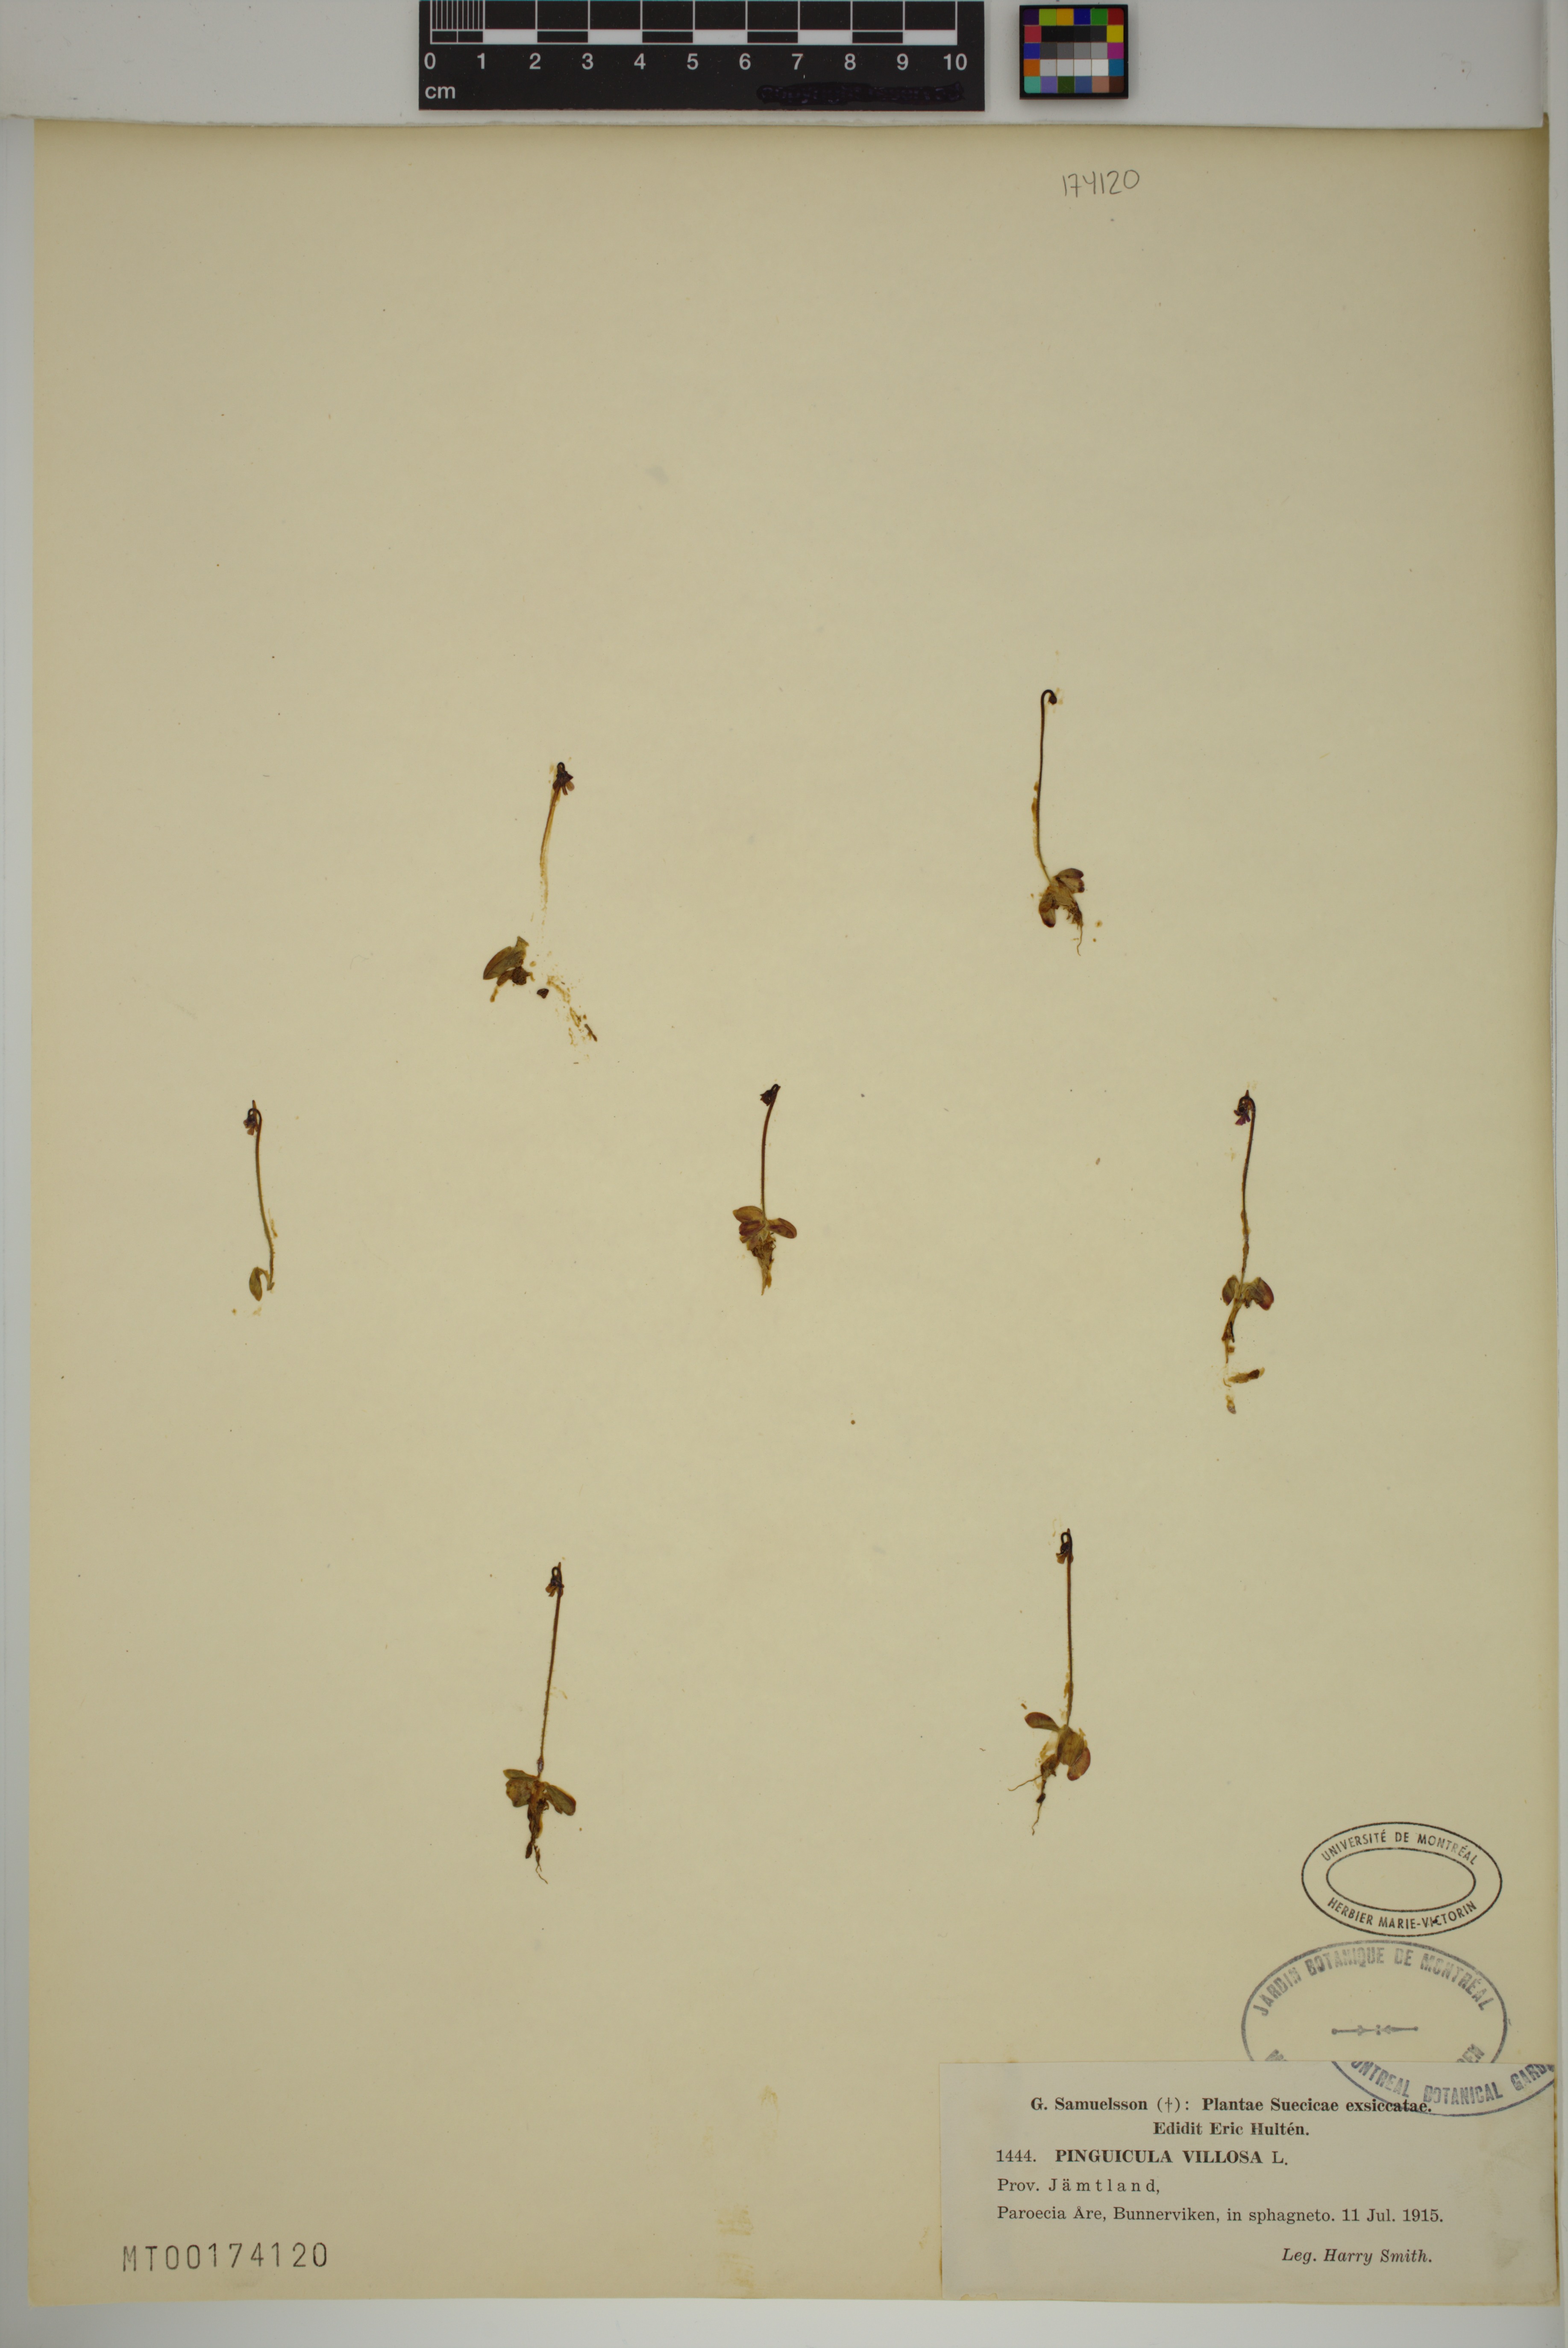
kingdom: Plantae
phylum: Tracheophyta
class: Magnoliopsida
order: Lamiales
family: Lentibulariaceae
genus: Pinguicula
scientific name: Pinguicula villosa
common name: Hairy butterwort
